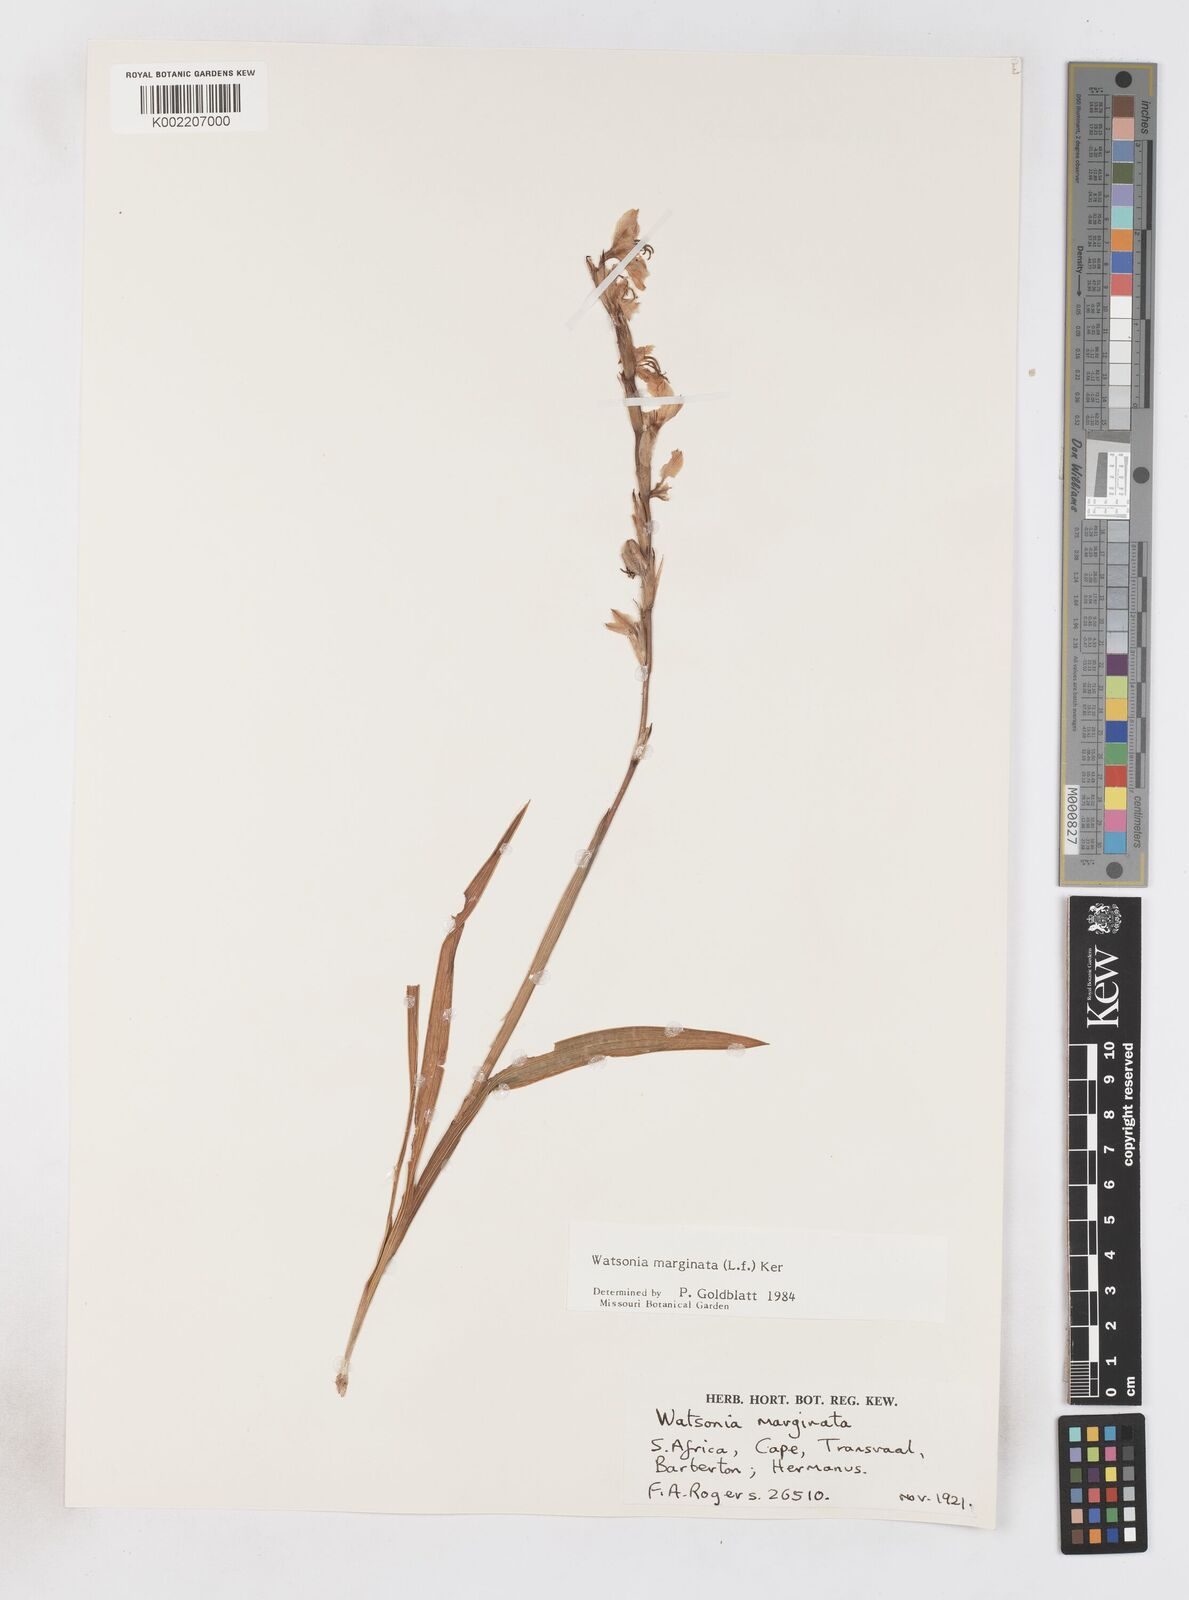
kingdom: Plantae
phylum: Tracheophyta
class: Liliopsida
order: Asparagales
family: Iridaceae
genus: Watsonia
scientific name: Watsonia marginata
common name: Fragrant bugle-lily
